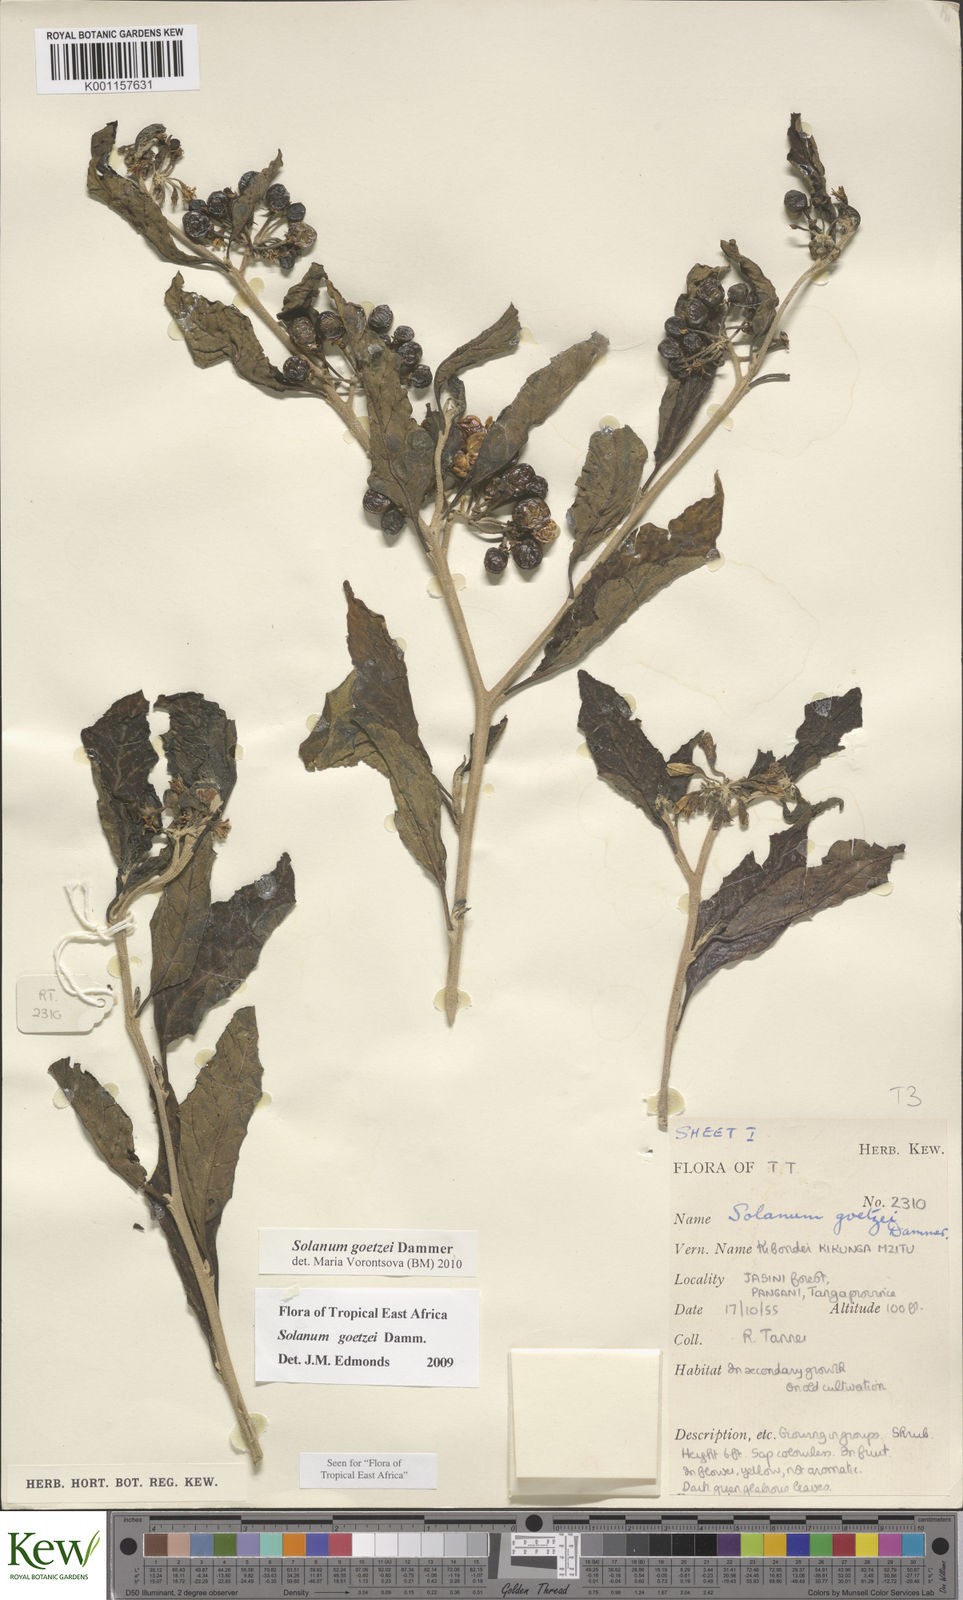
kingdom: Plantae
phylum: Tracheophyta
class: Magnoliopsida
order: Solanales
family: Solanaceae
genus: Solanum
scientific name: Solanum goetzei
